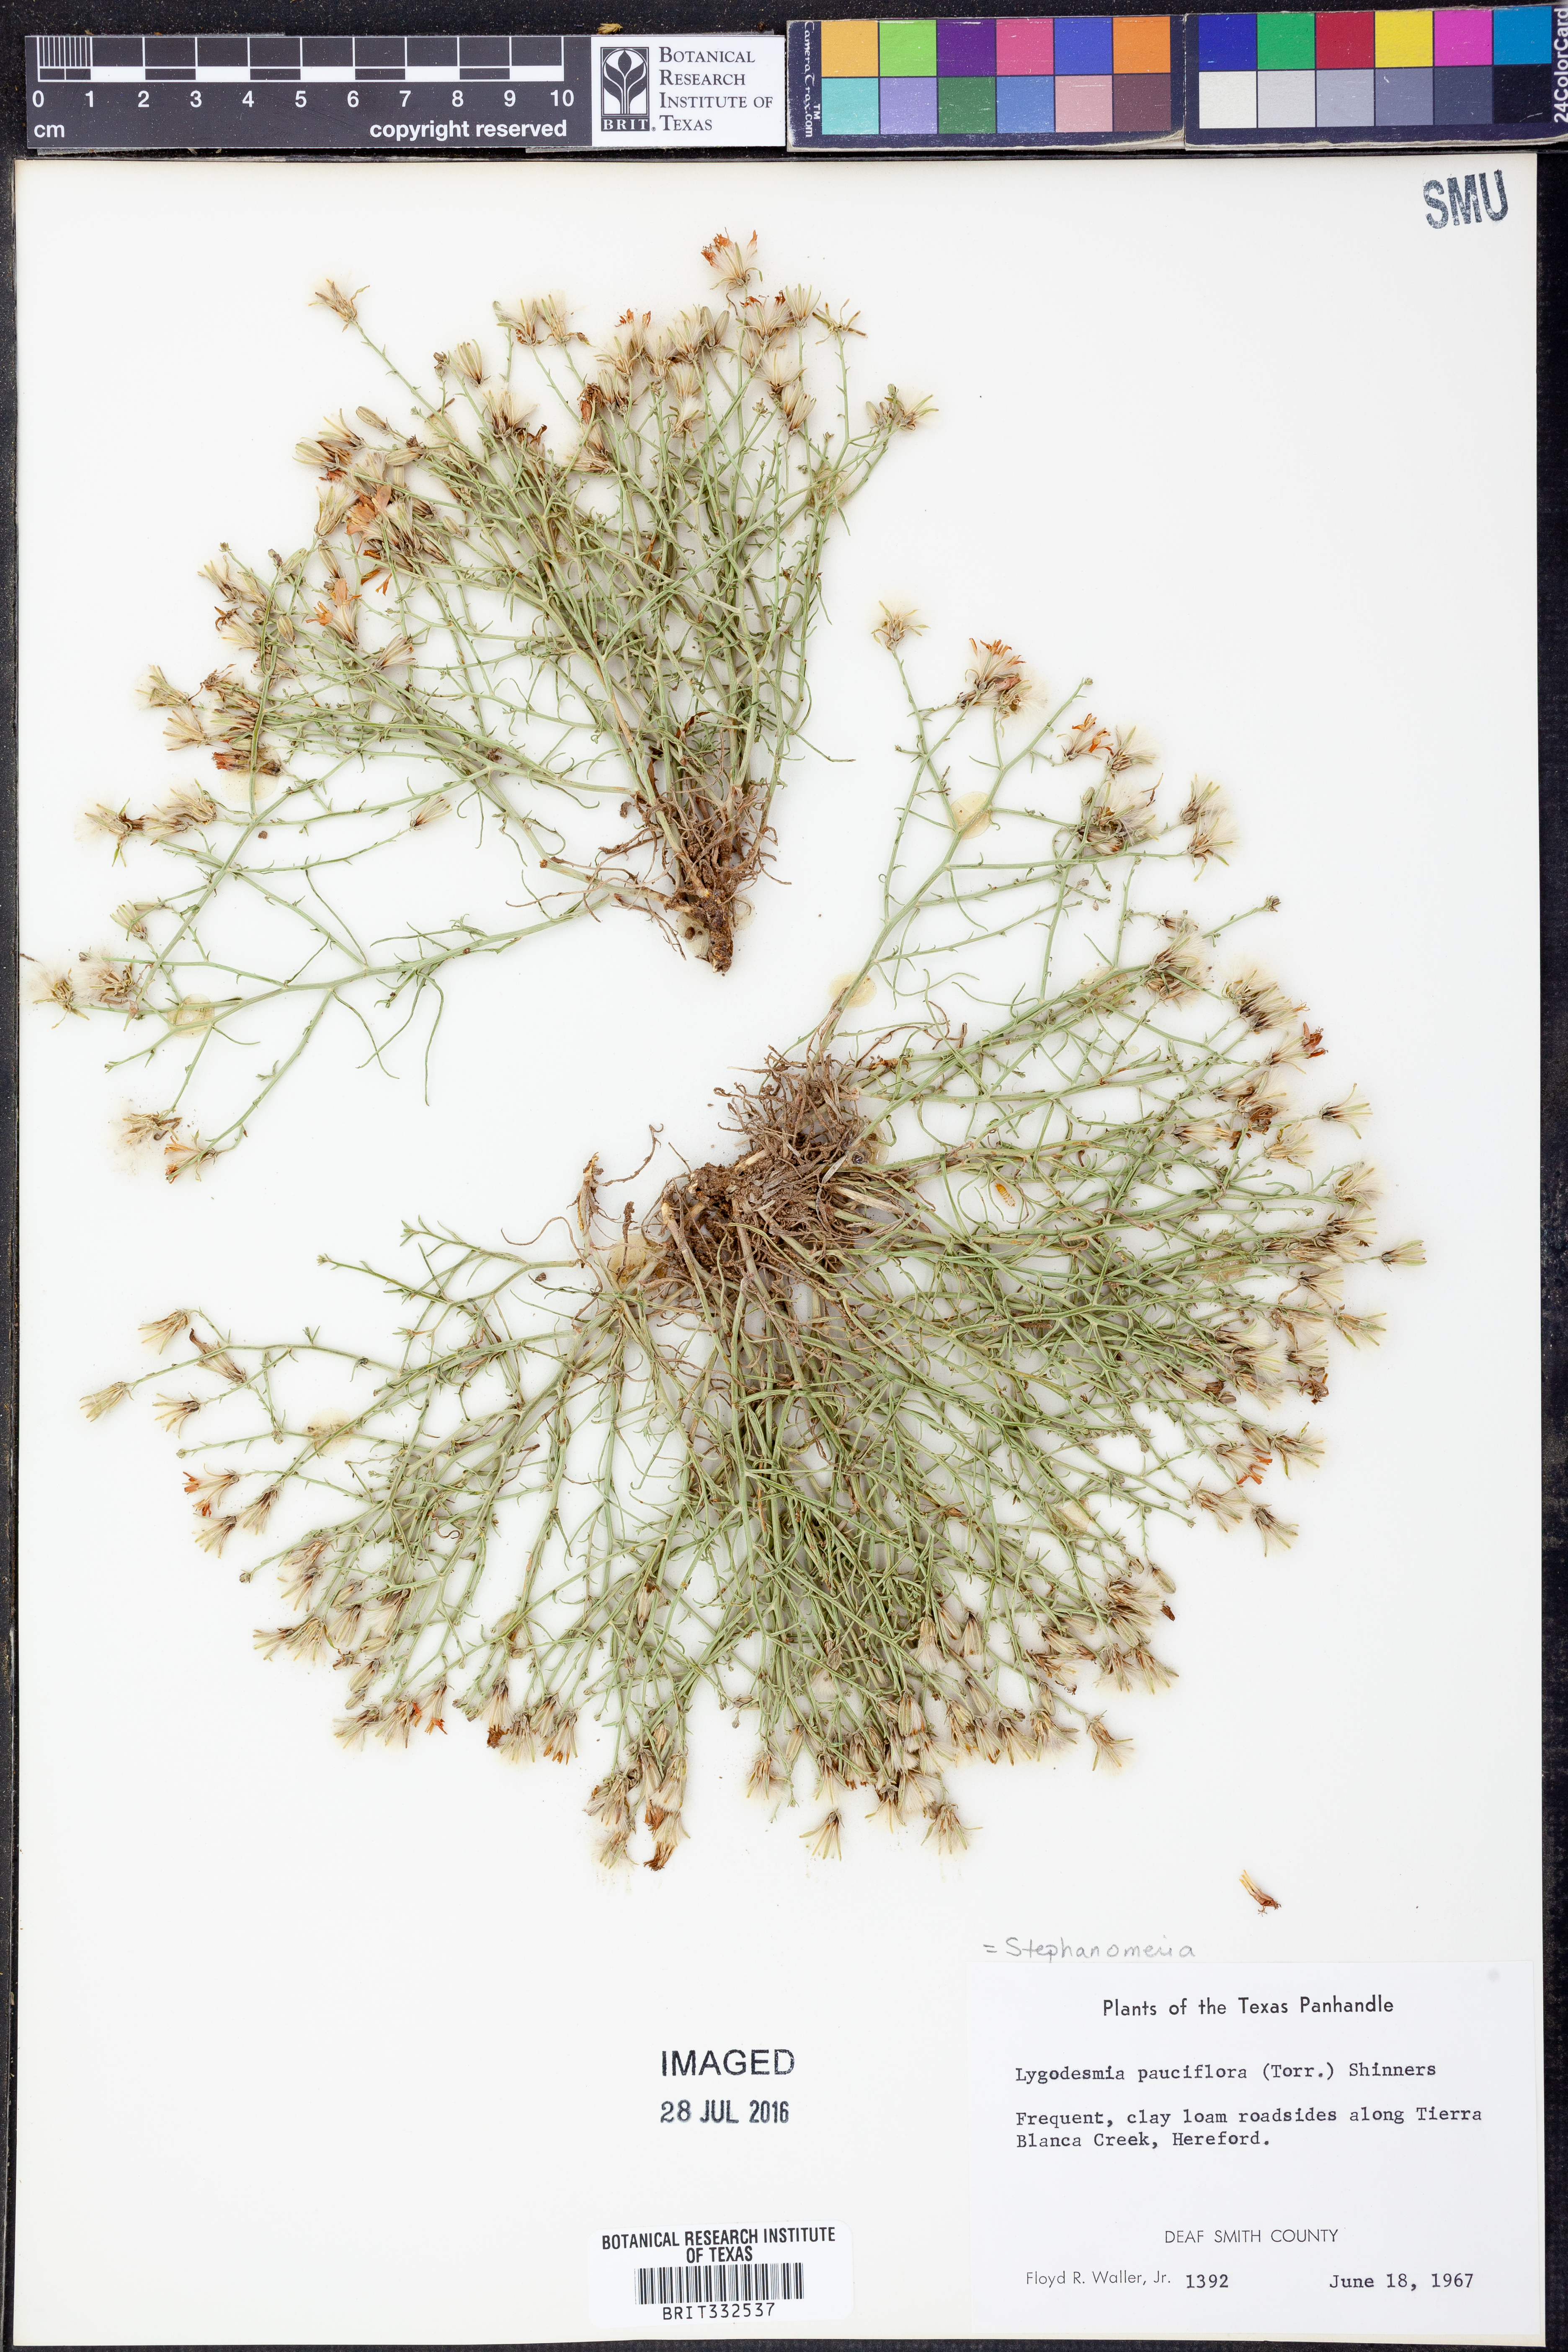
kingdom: Plantae
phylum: Tracheophyta
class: Magnoliopsida
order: Asterales
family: Asteraceae
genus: Stephanomeria
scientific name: Stephanomeria pauciflora
